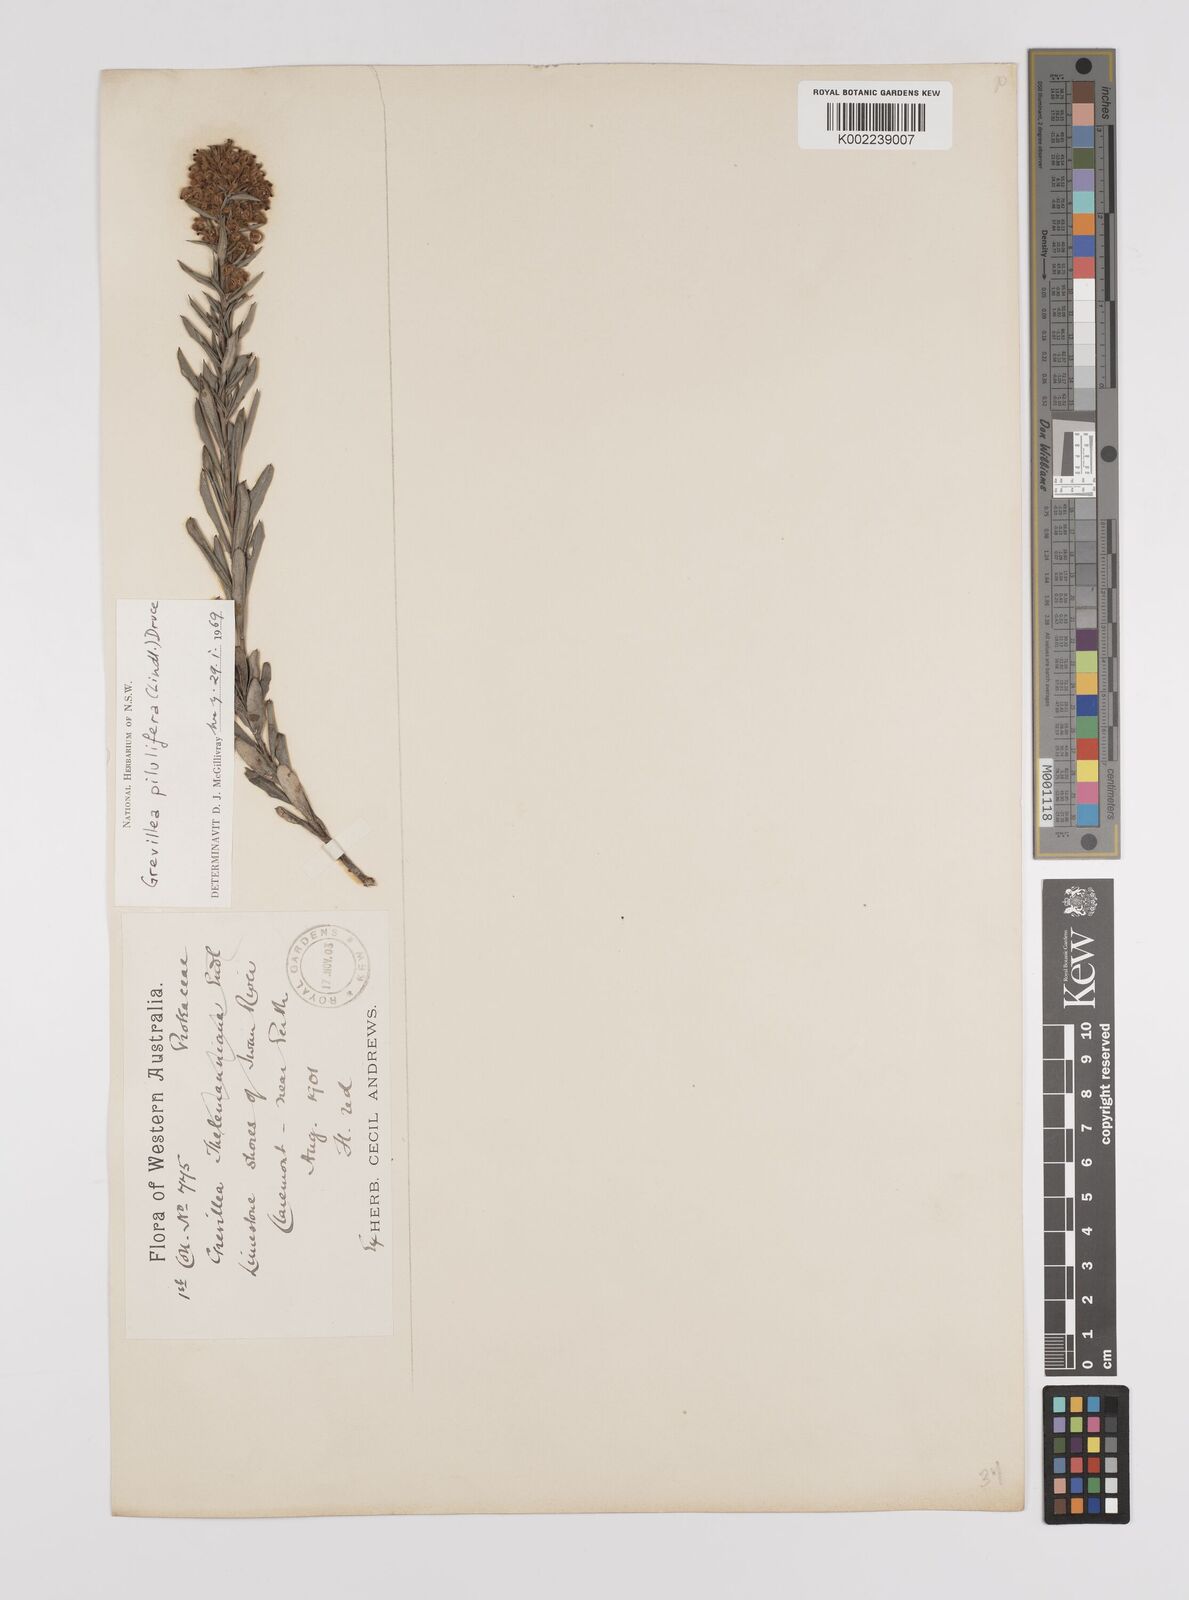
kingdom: Plantae
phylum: Tracheophyta
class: Magnoliopsida
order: Proteales
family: Proteaceae
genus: Grevillea
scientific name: Grevillea pilulifera
